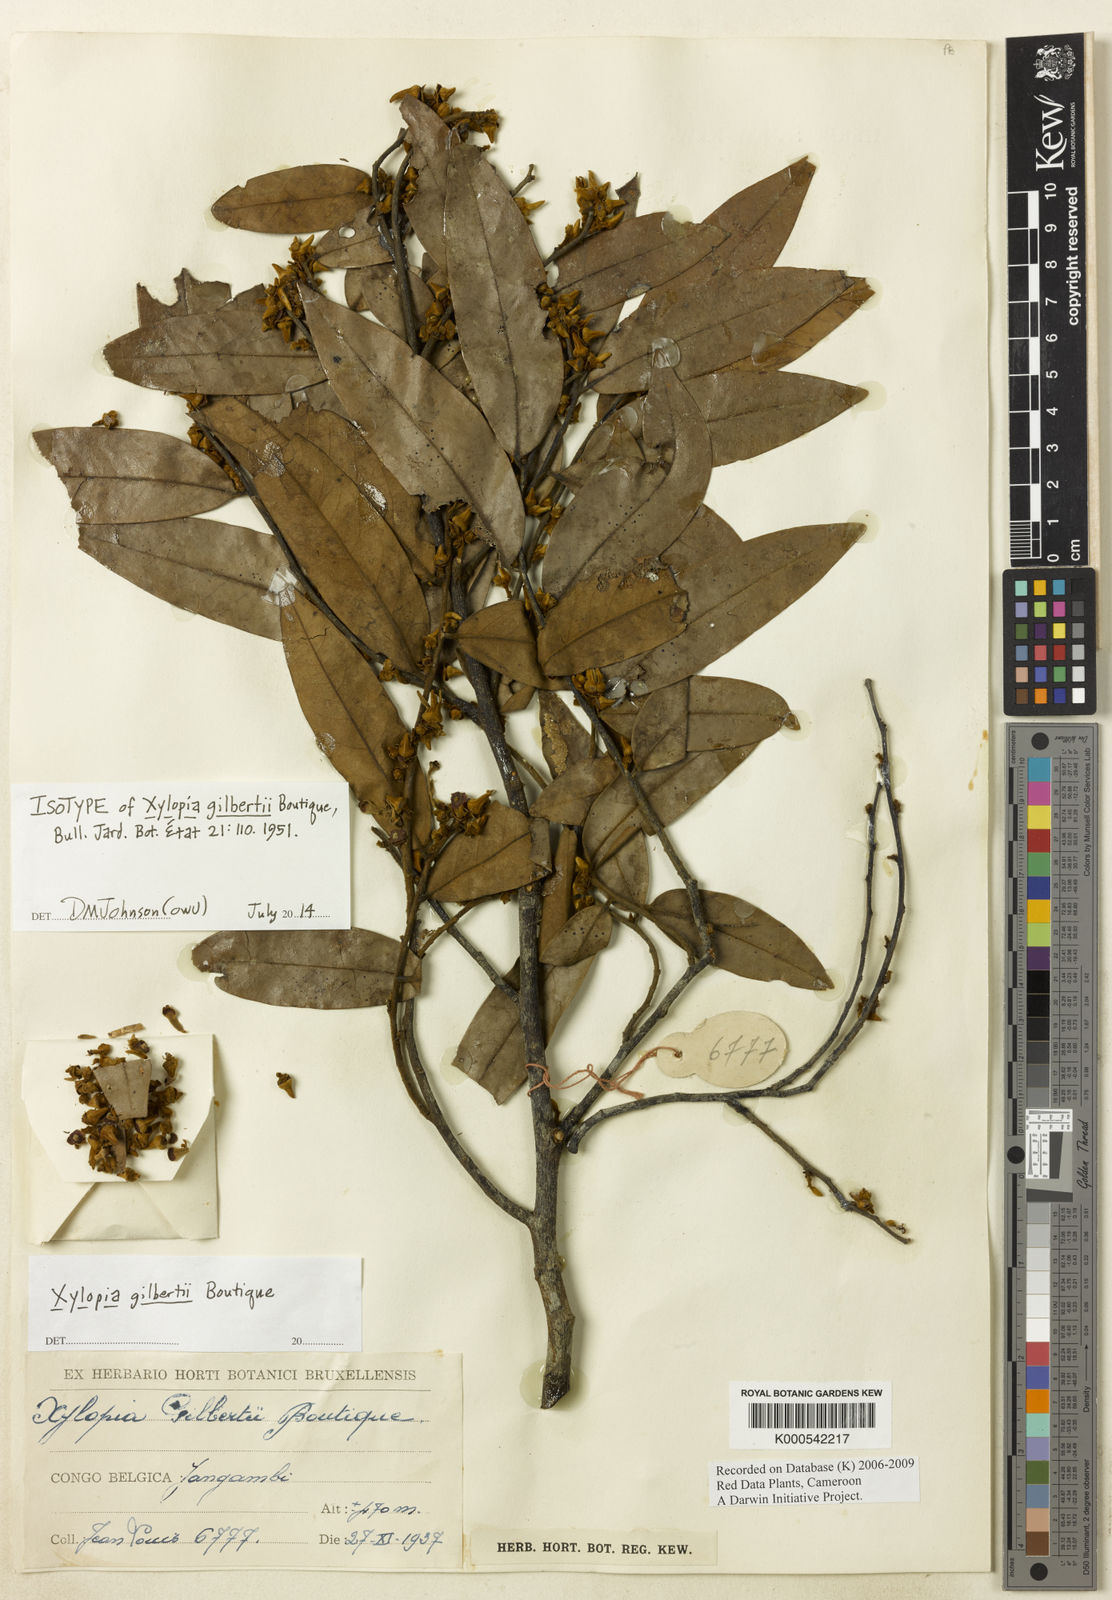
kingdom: Plantae
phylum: Tracheophyta
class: Magnoliopsida
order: Magnoliales
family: Annonaceae
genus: Xylopia
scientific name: Xylopia gilbertii
